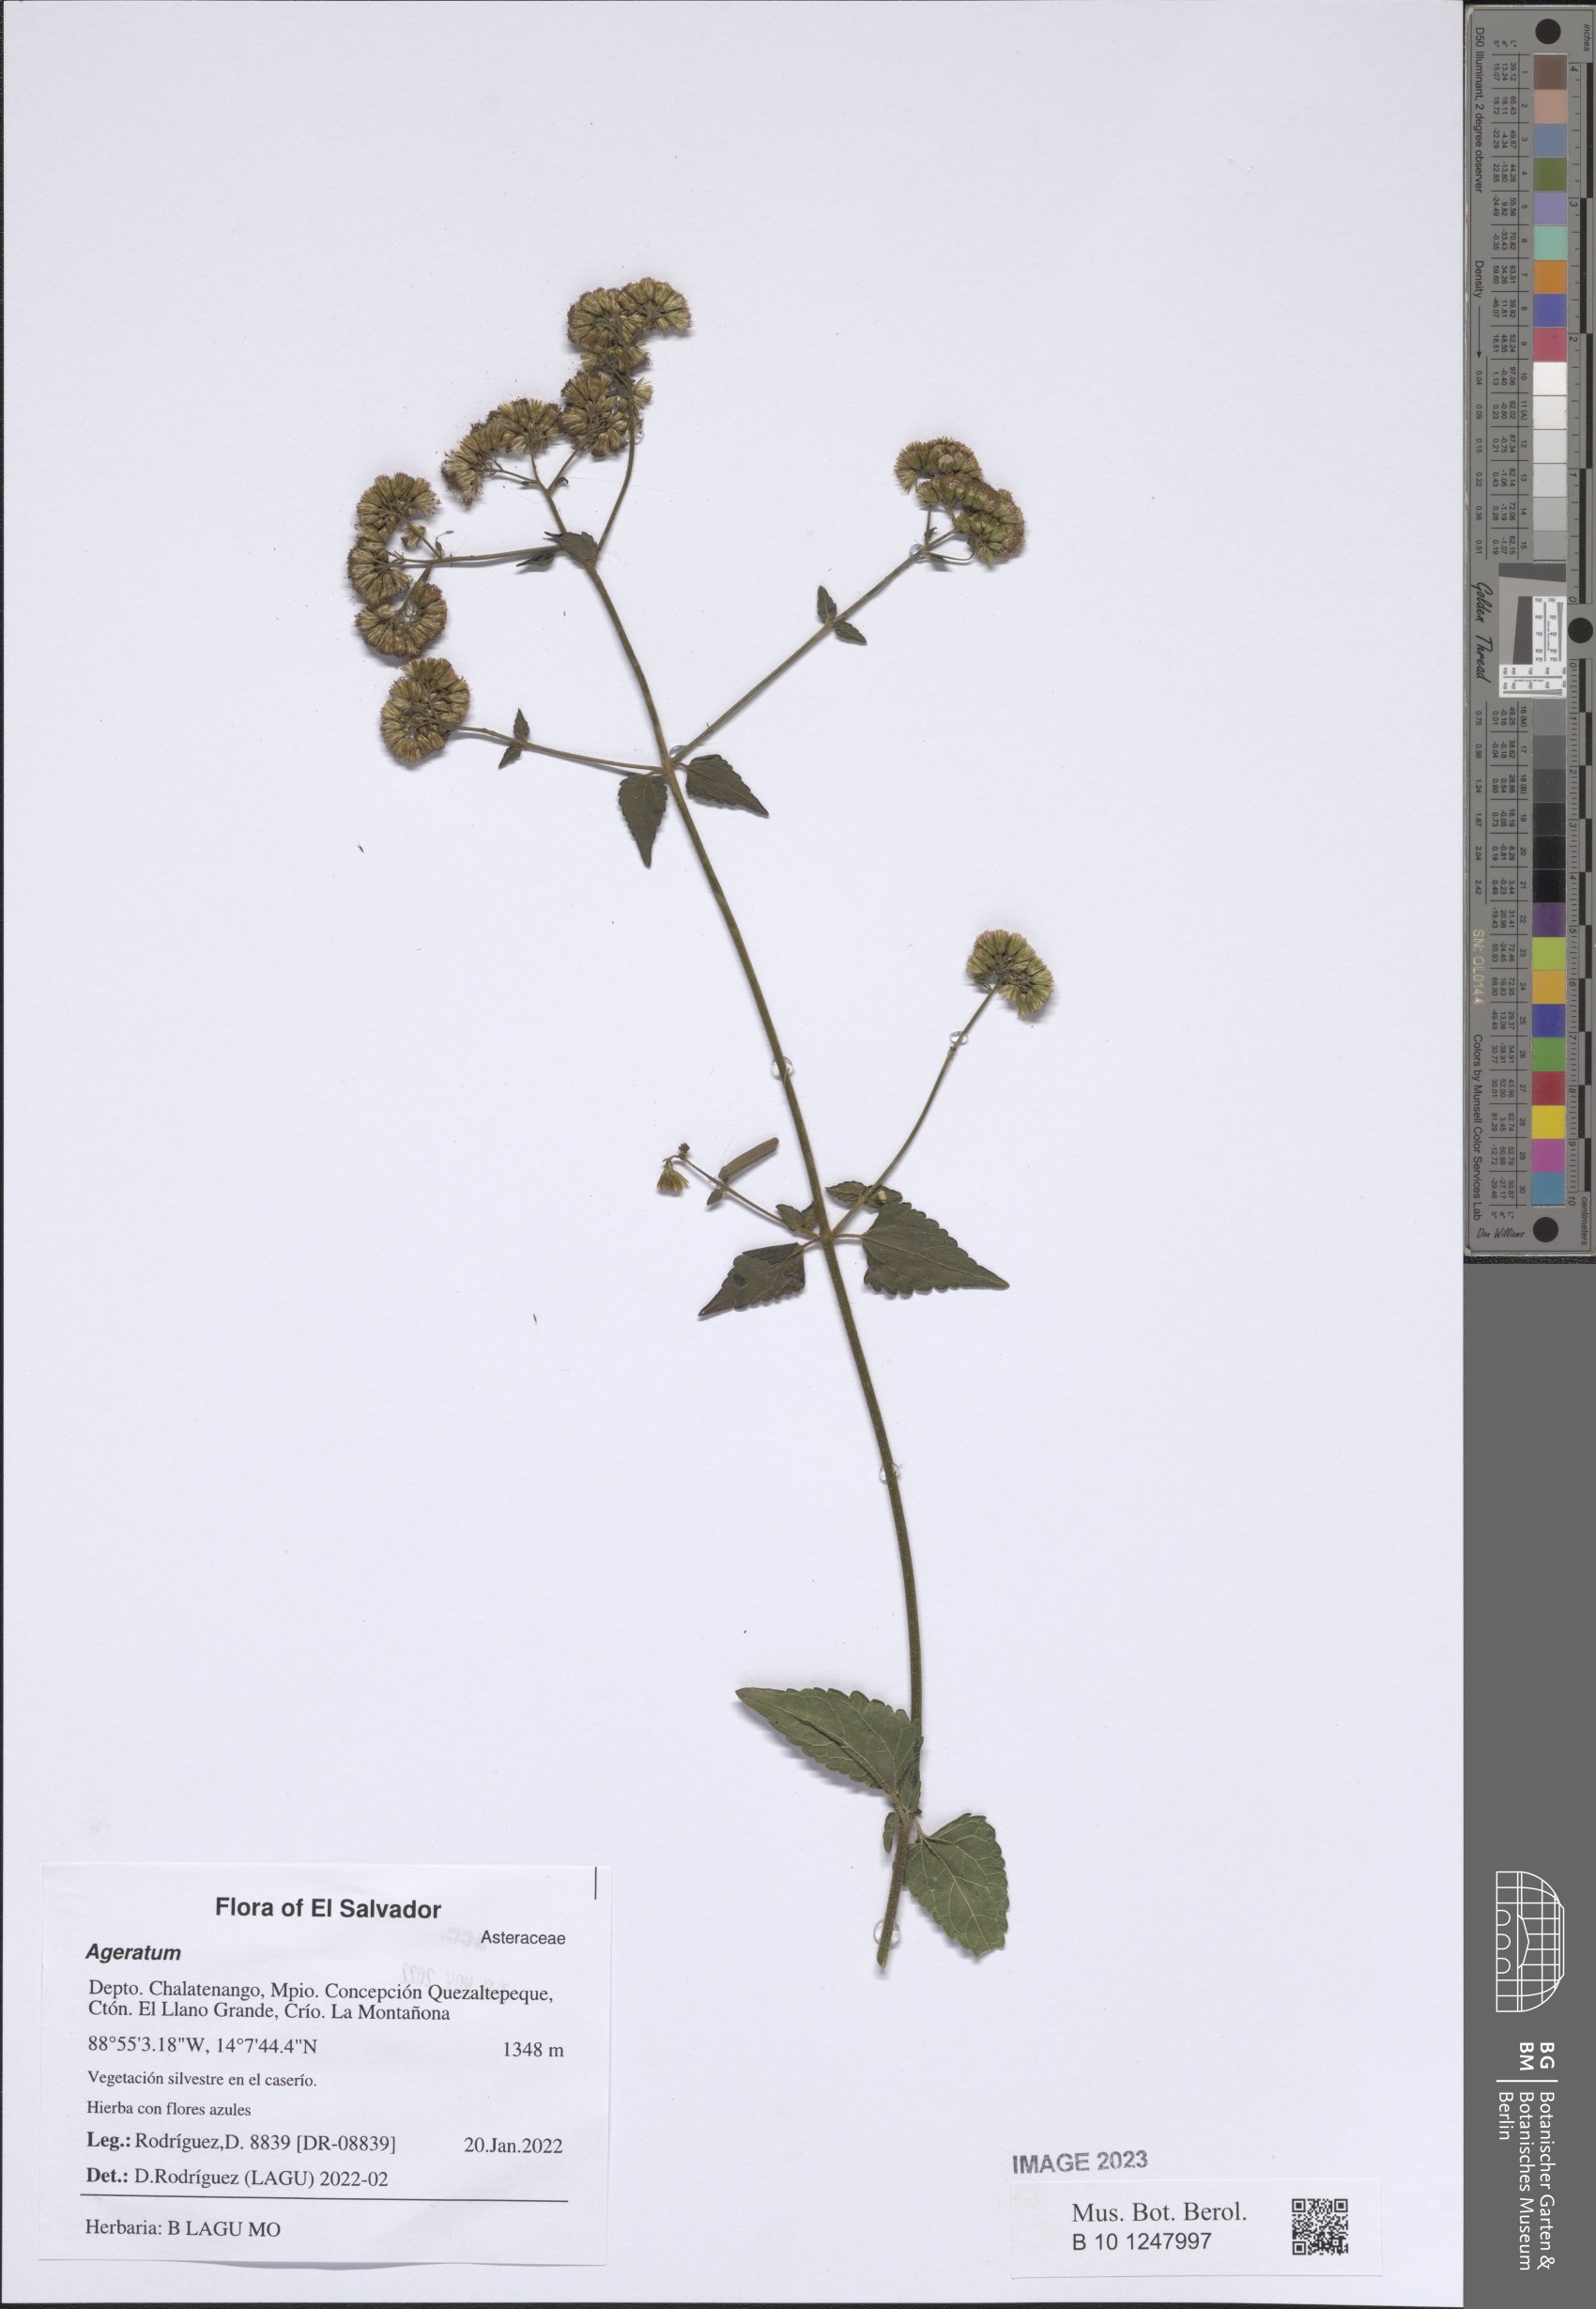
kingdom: Plantae
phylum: Tracheophyta
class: Magnoliopsida
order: Asterales
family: Asteraceae
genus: Ageratum
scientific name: Ageratum
